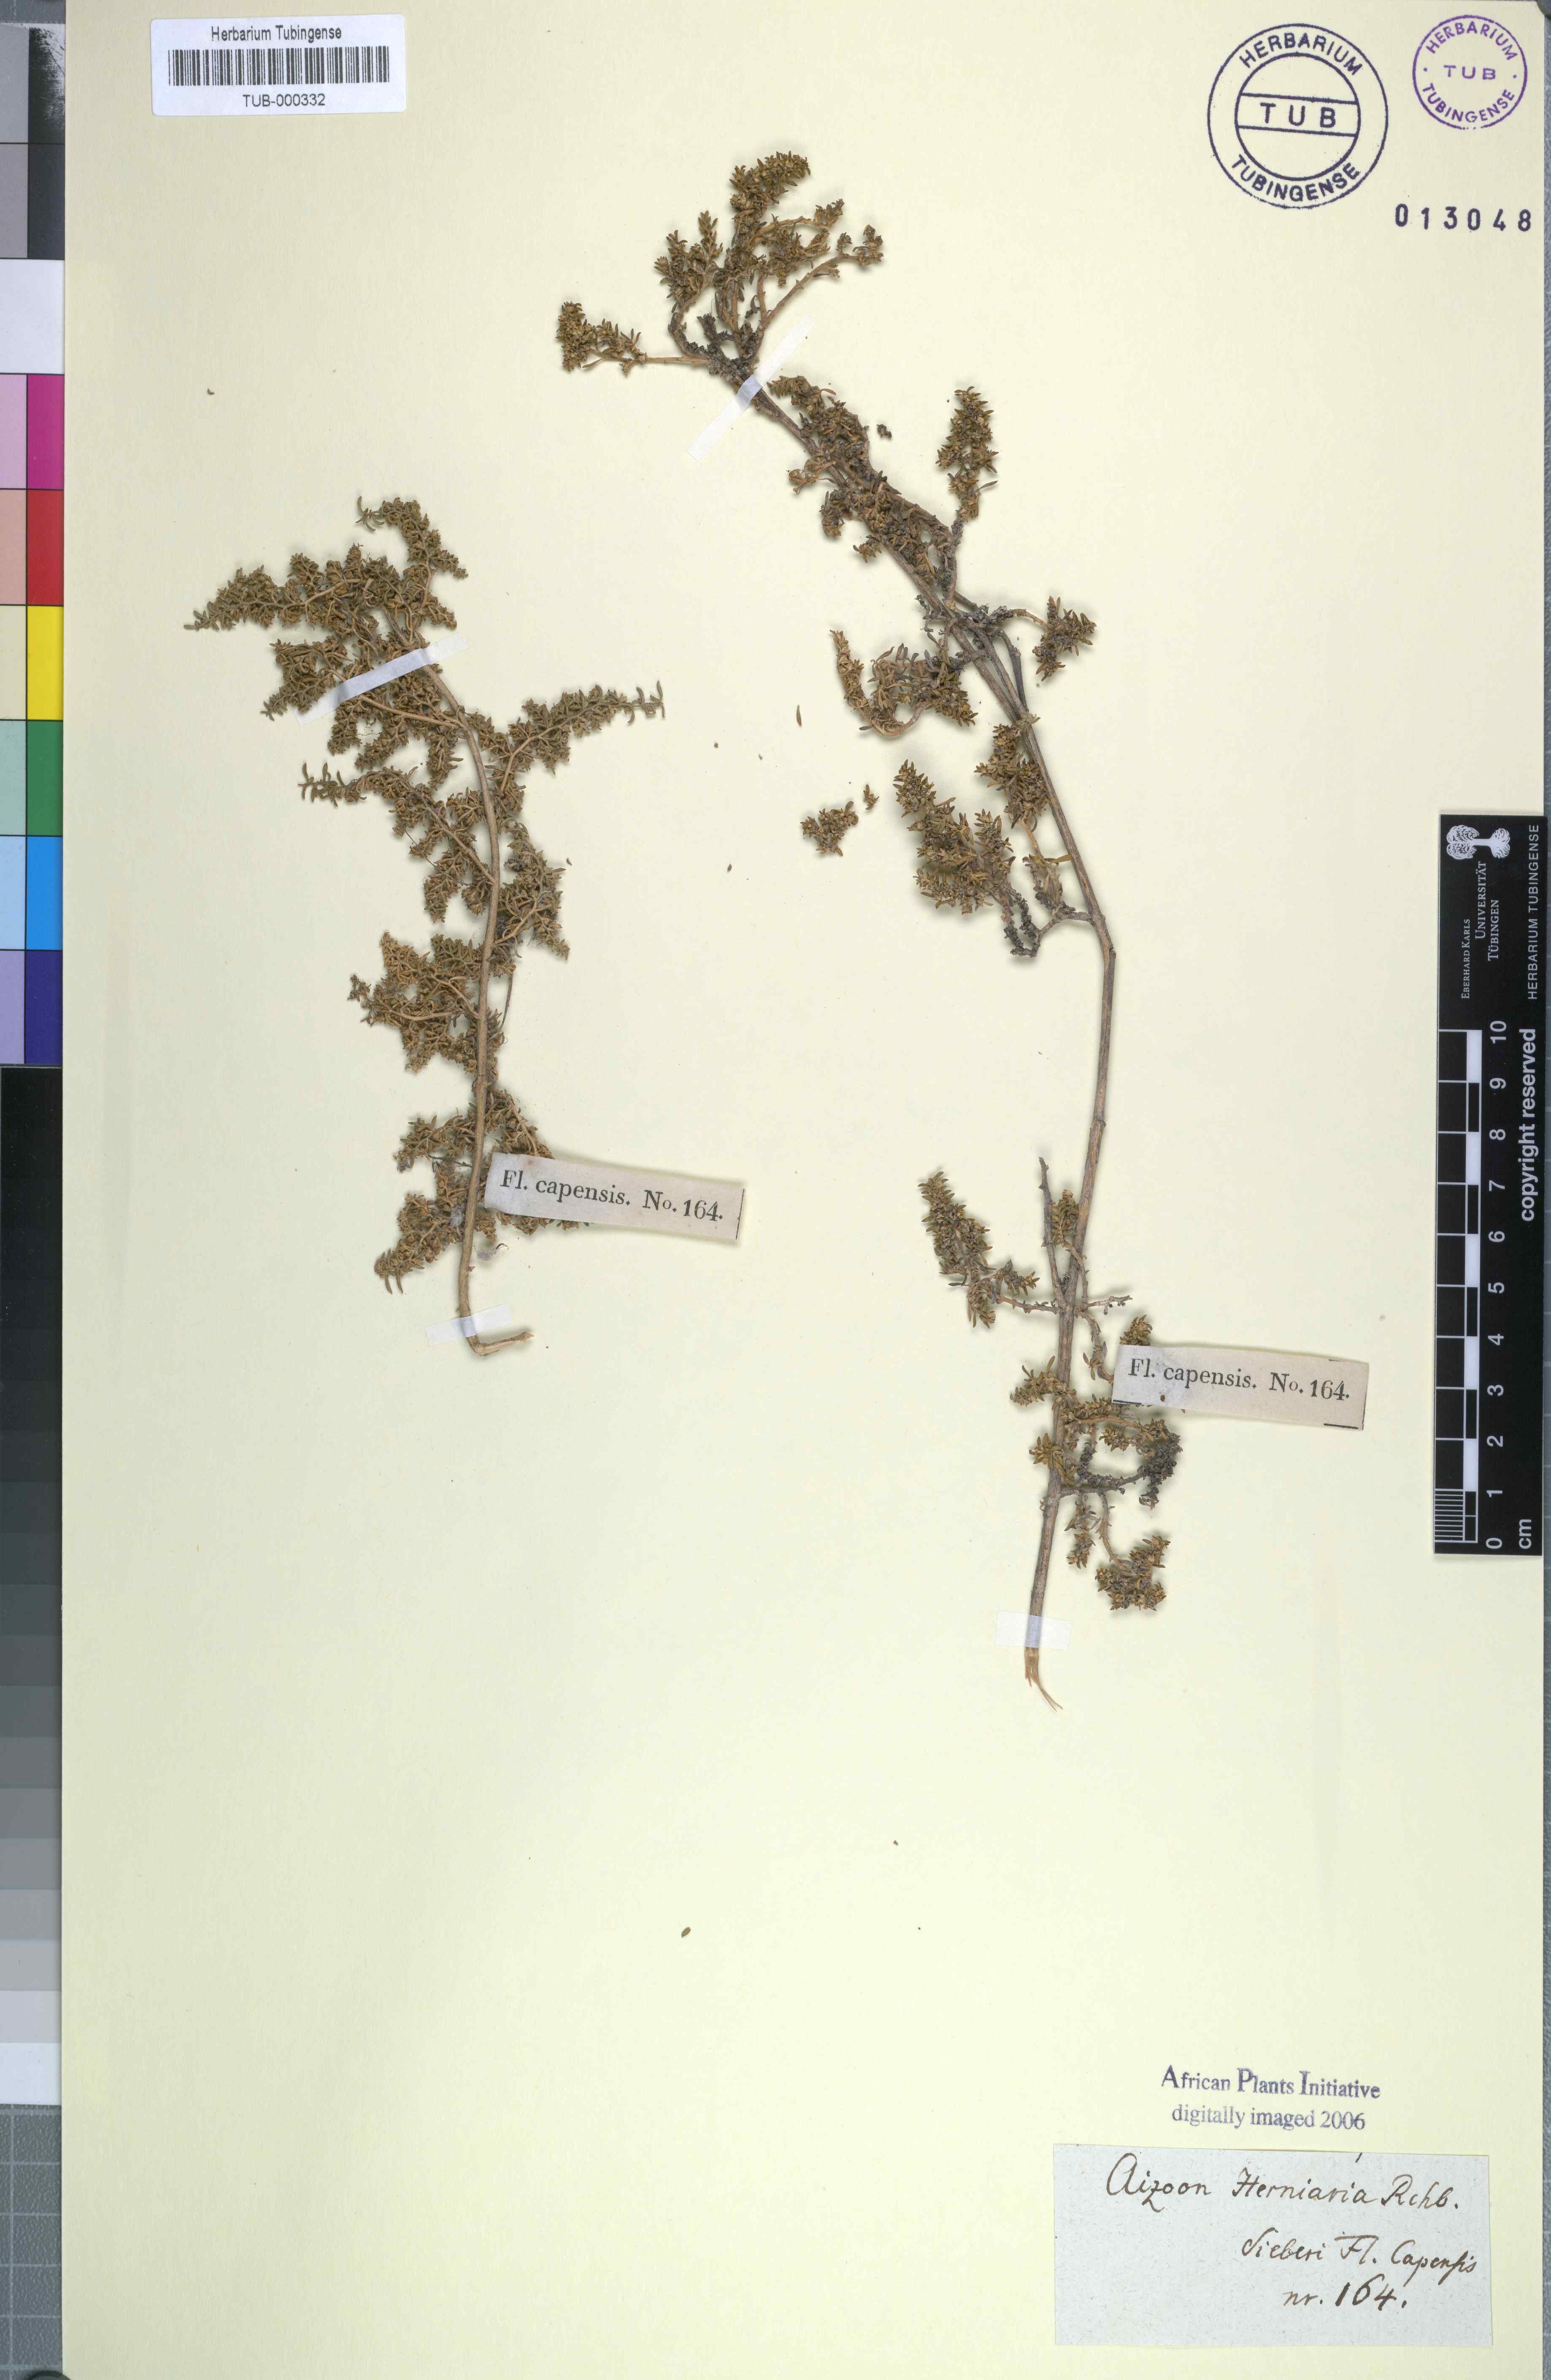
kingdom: Plantae
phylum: Tracheophyta
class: Magnoliopsida
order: Caryophyllales
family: Aizoaceae
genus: Aizoon
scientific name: Aizoon herniariifolium
